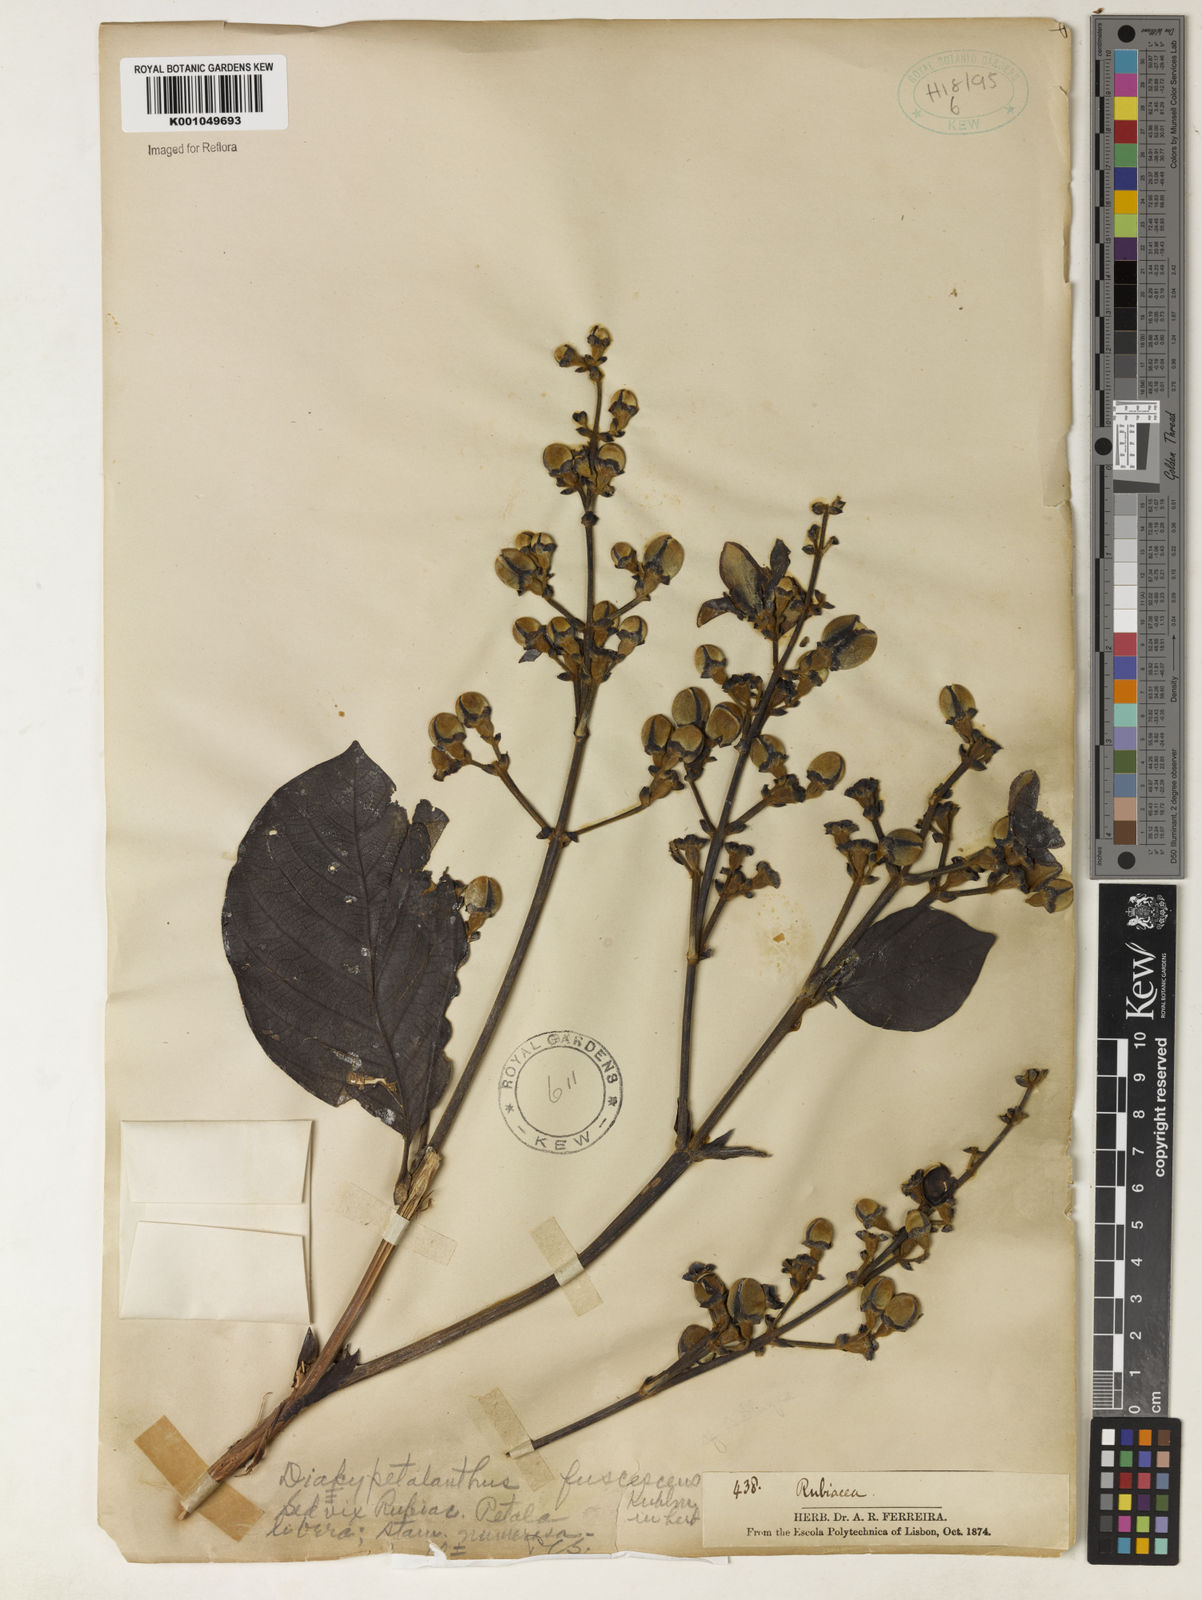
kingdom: Plantae
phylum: Tracheophyta
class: Magnoliopsida
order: Gentianales
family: Rubiaceae
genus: Dialypetalanthus
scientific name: Dialypetalanthus fuscescens
